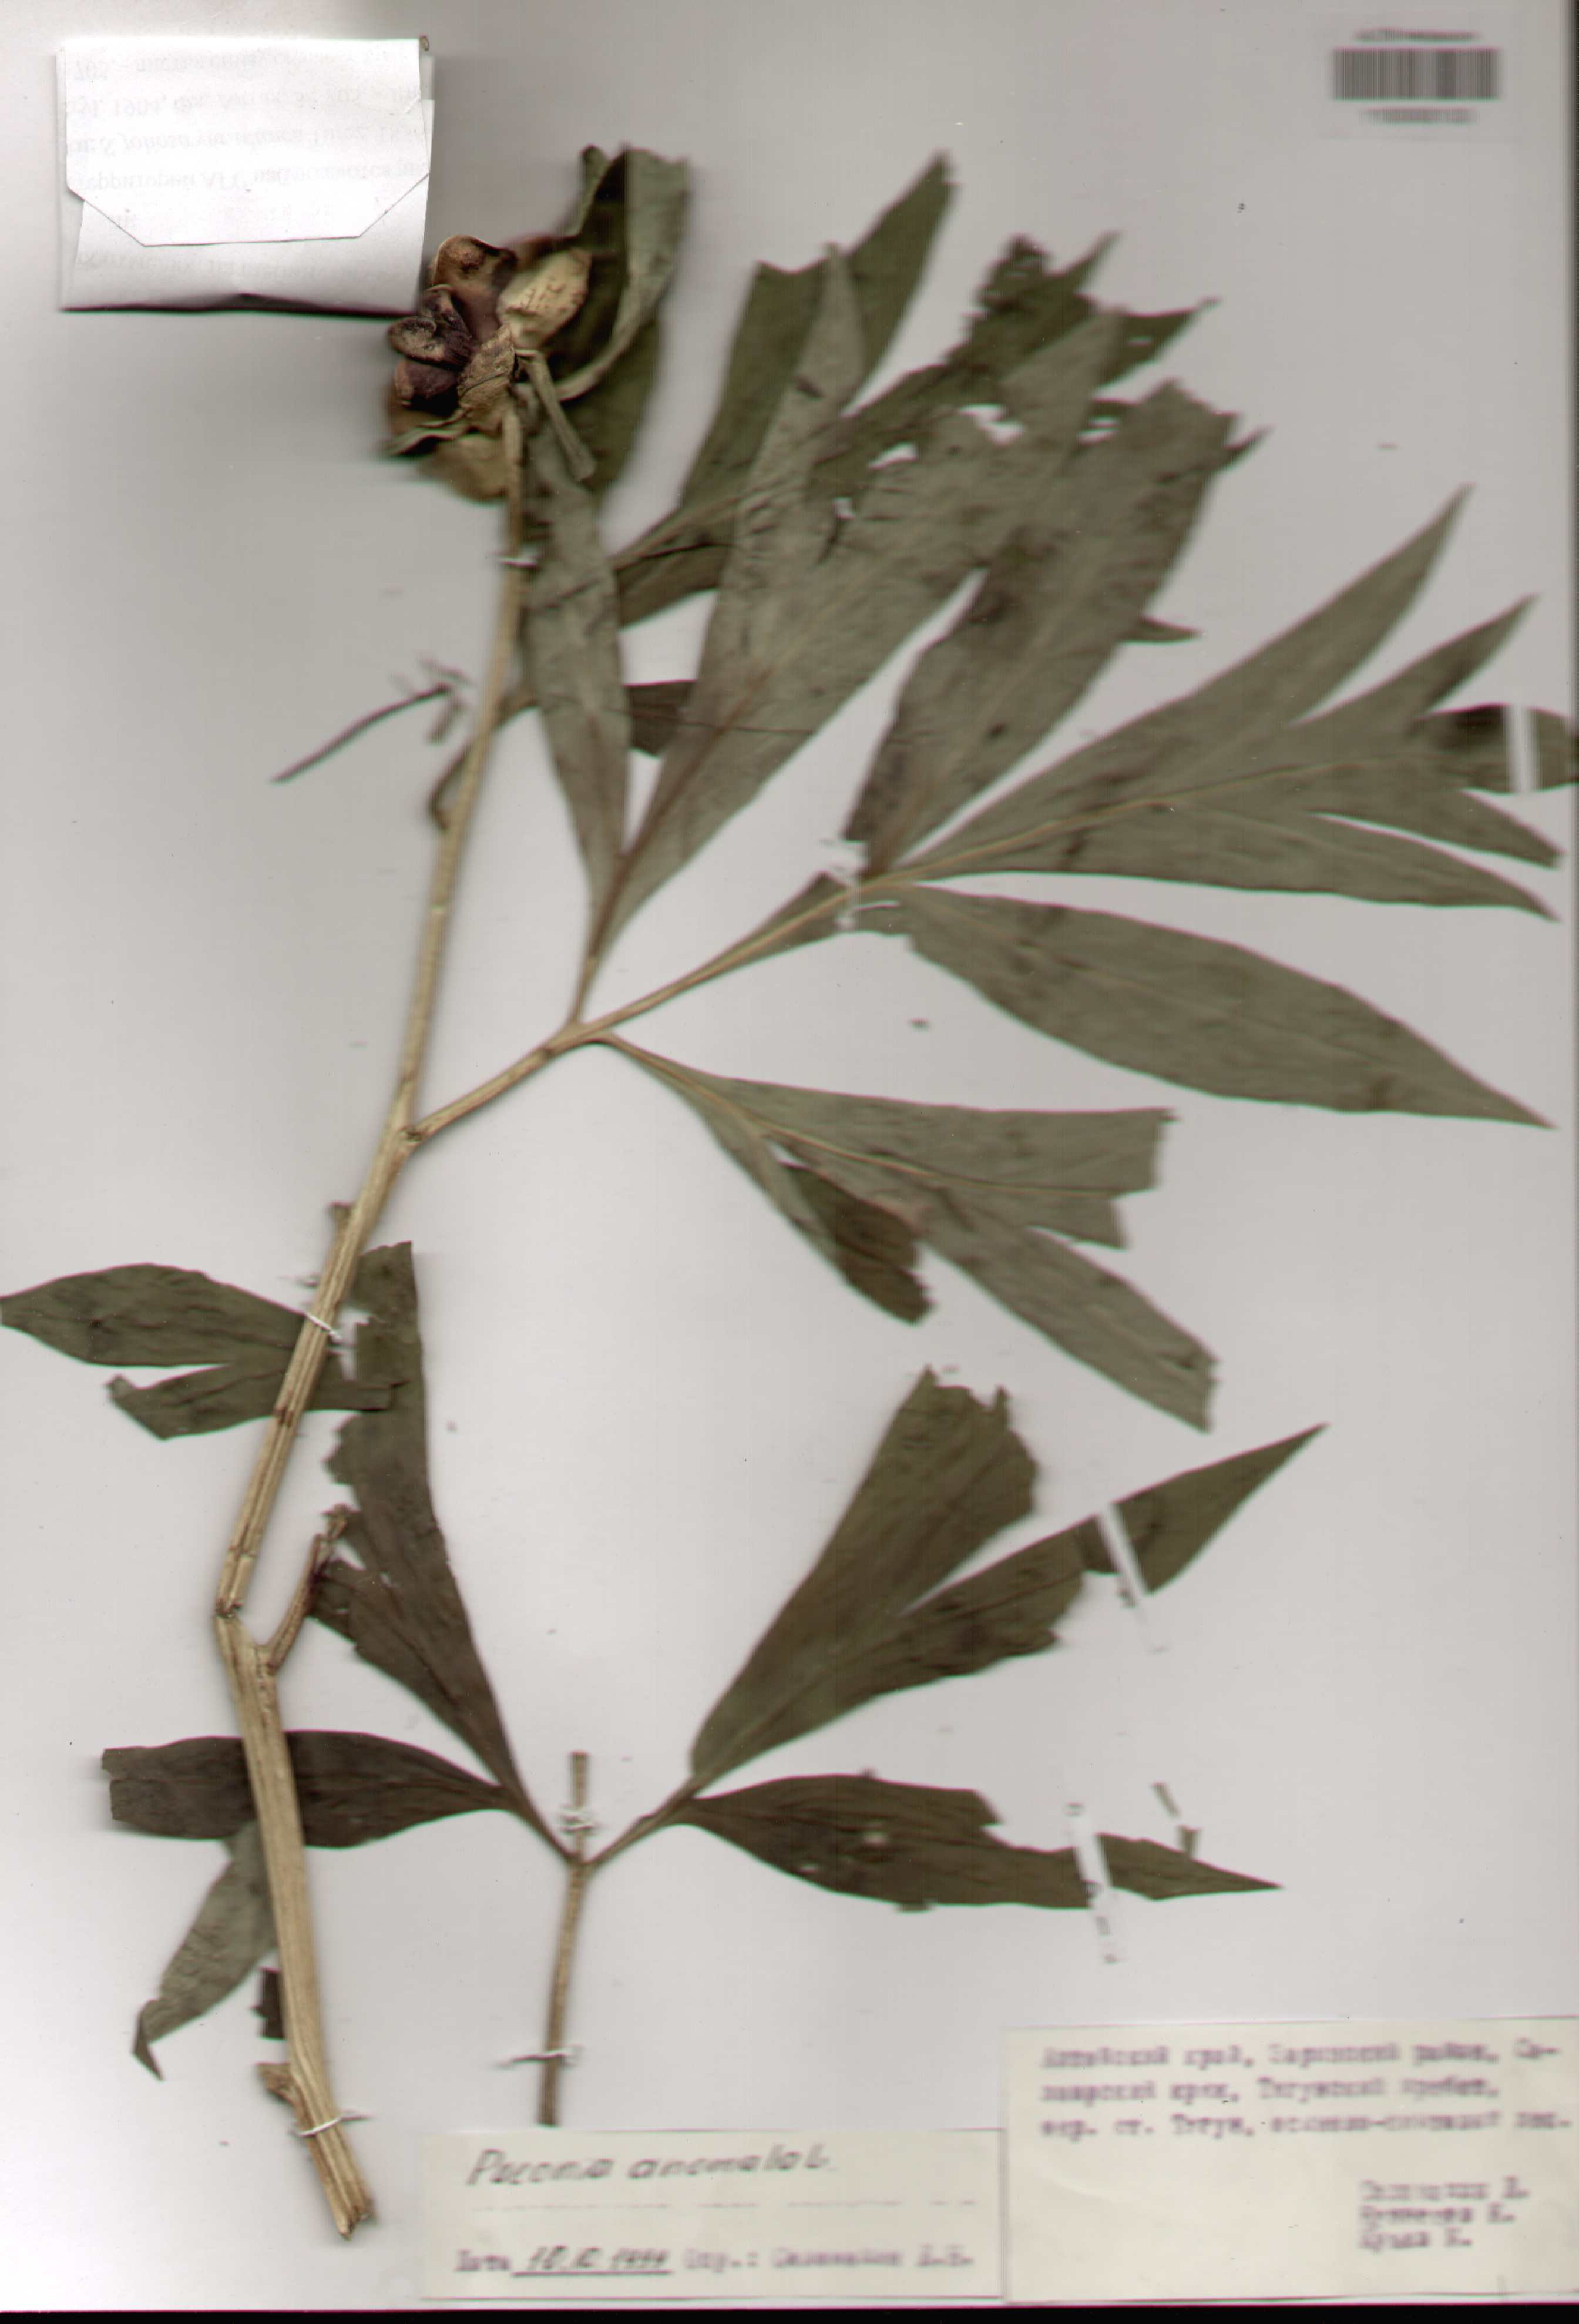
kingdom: Plantae
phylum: Tracheophyta
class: Magnoliopsida
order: Saxifragales
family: Paeoniaceae
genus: Paeonia
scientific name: Paeonia anomala
